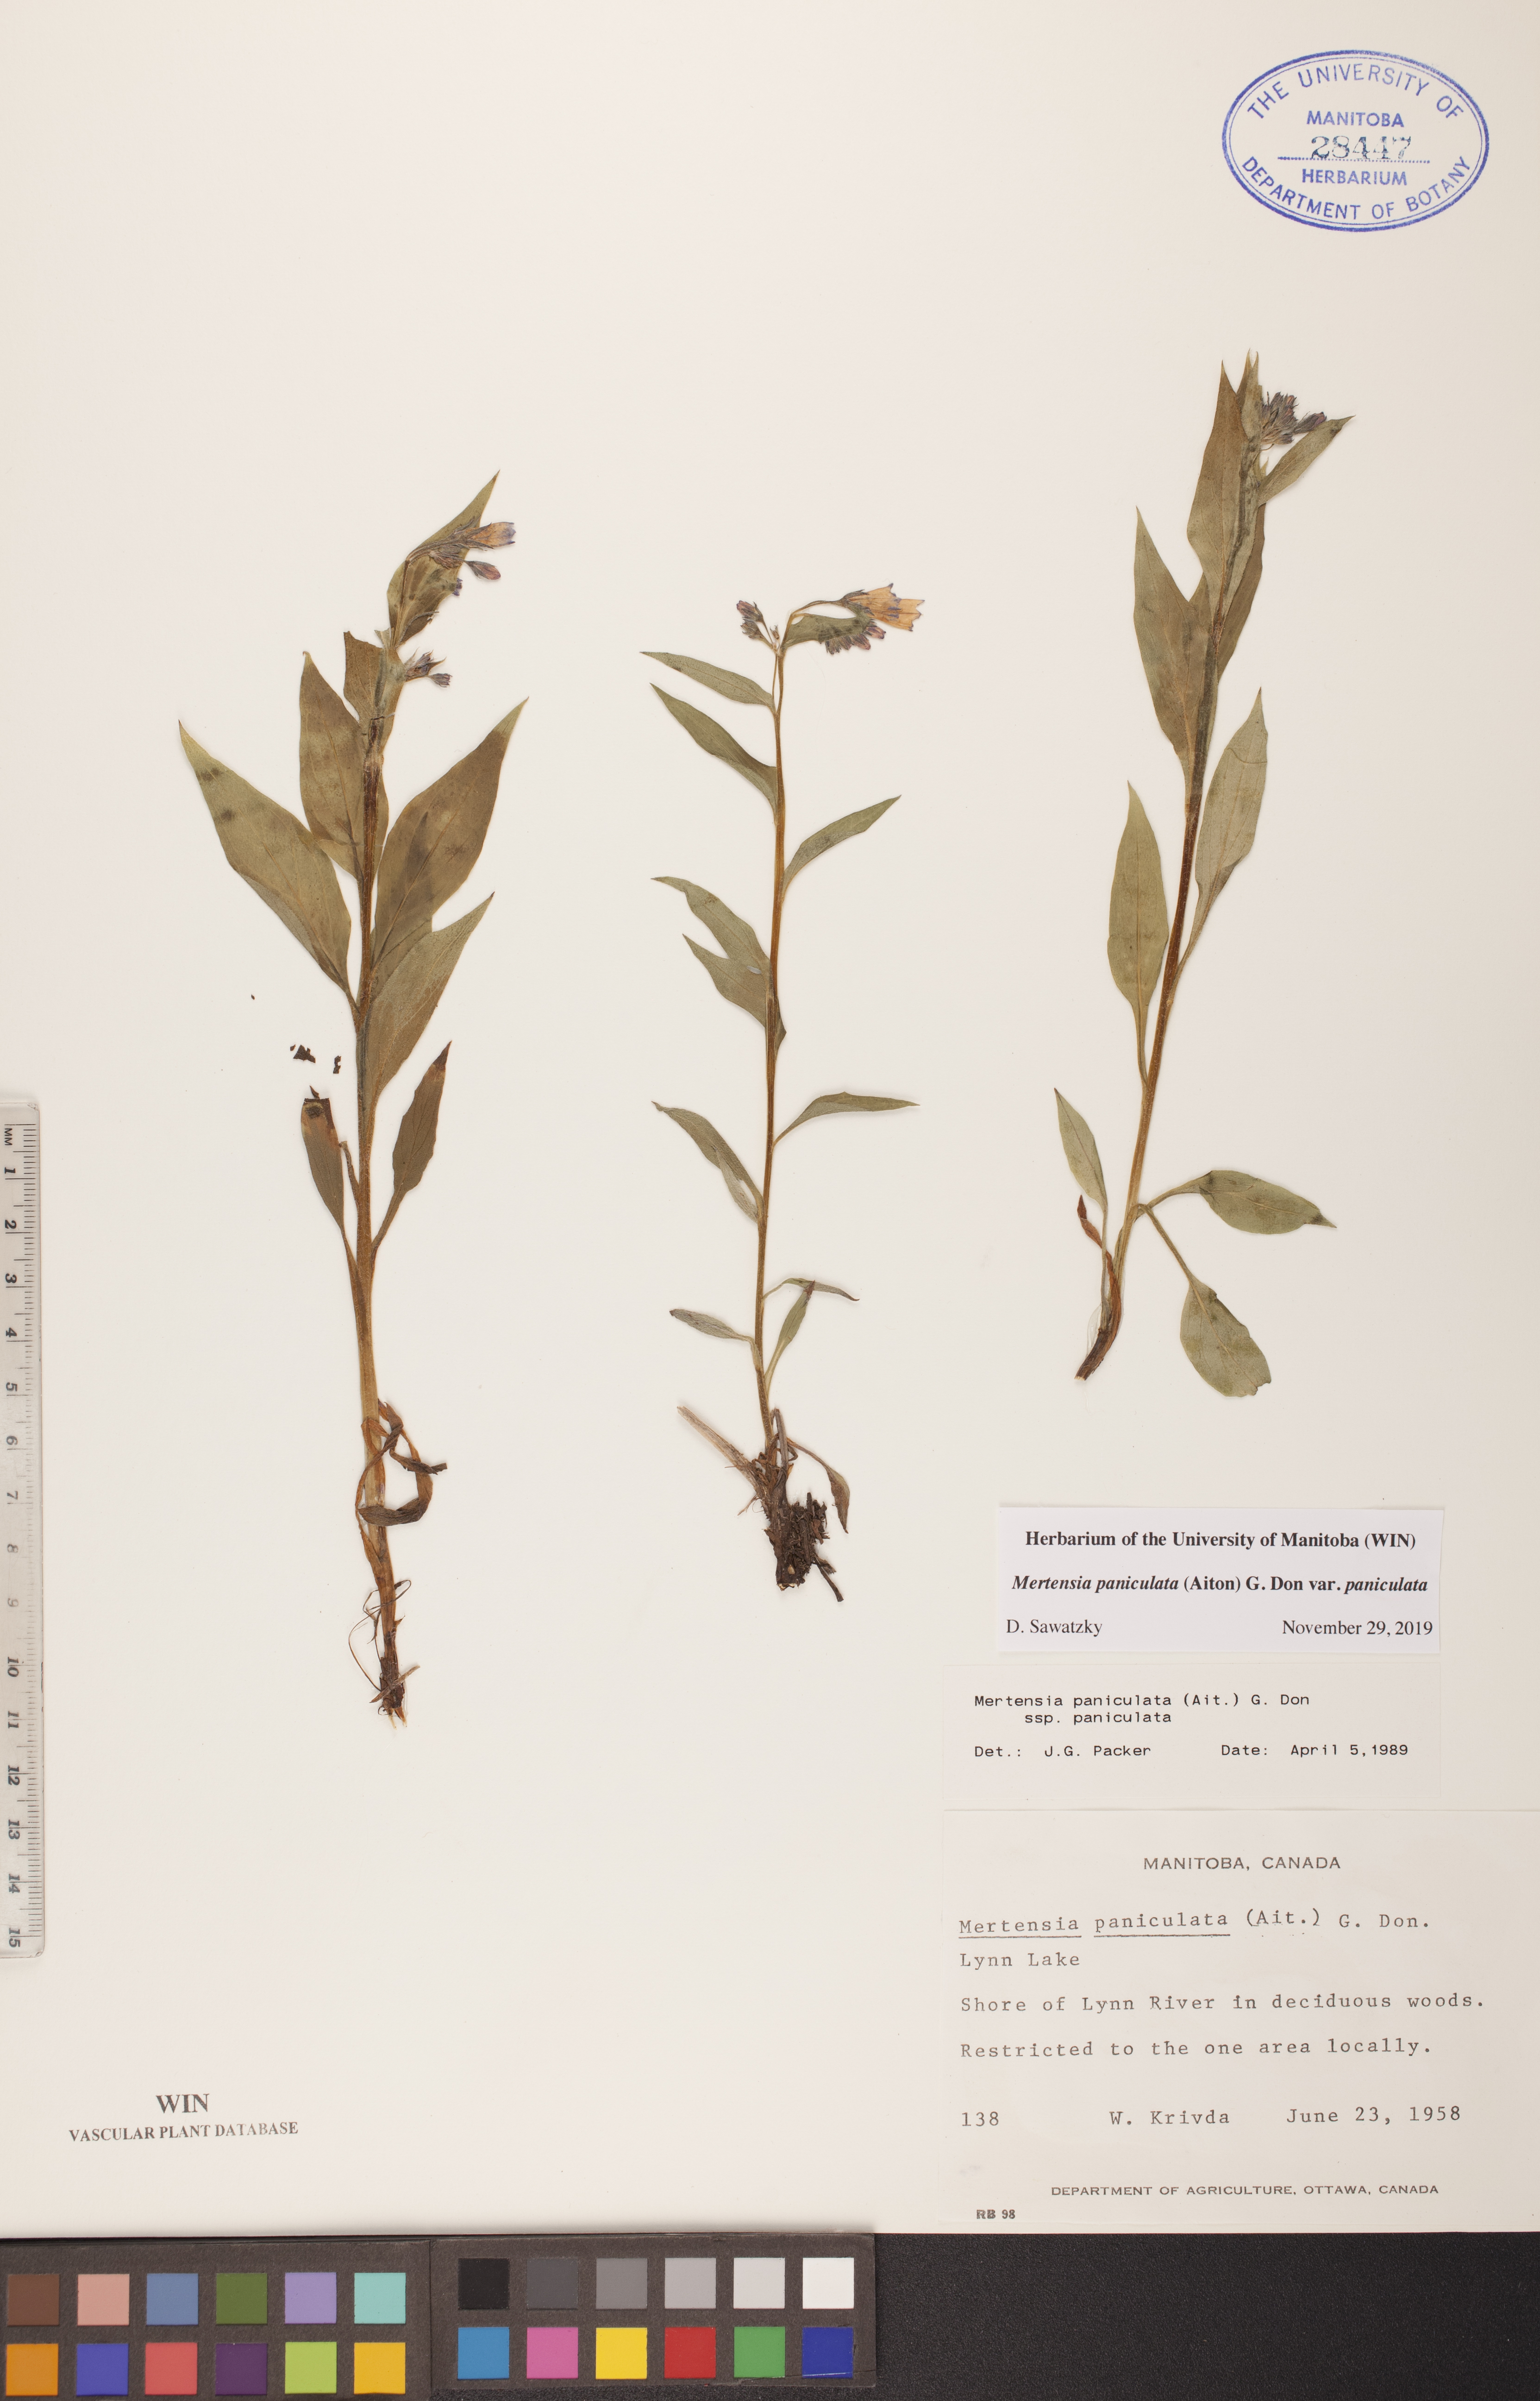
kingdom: Plantae
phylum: Tracheophyta
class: Magnoliopsida
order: Boraginales
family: Boraginaceae
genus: Mertensia
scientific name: Mertensia paniculata
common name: Panicled bluebells
